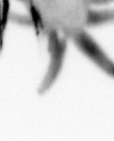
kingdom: Animalia
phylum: Annelida
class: Polychaeta
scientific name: Polychaeta
